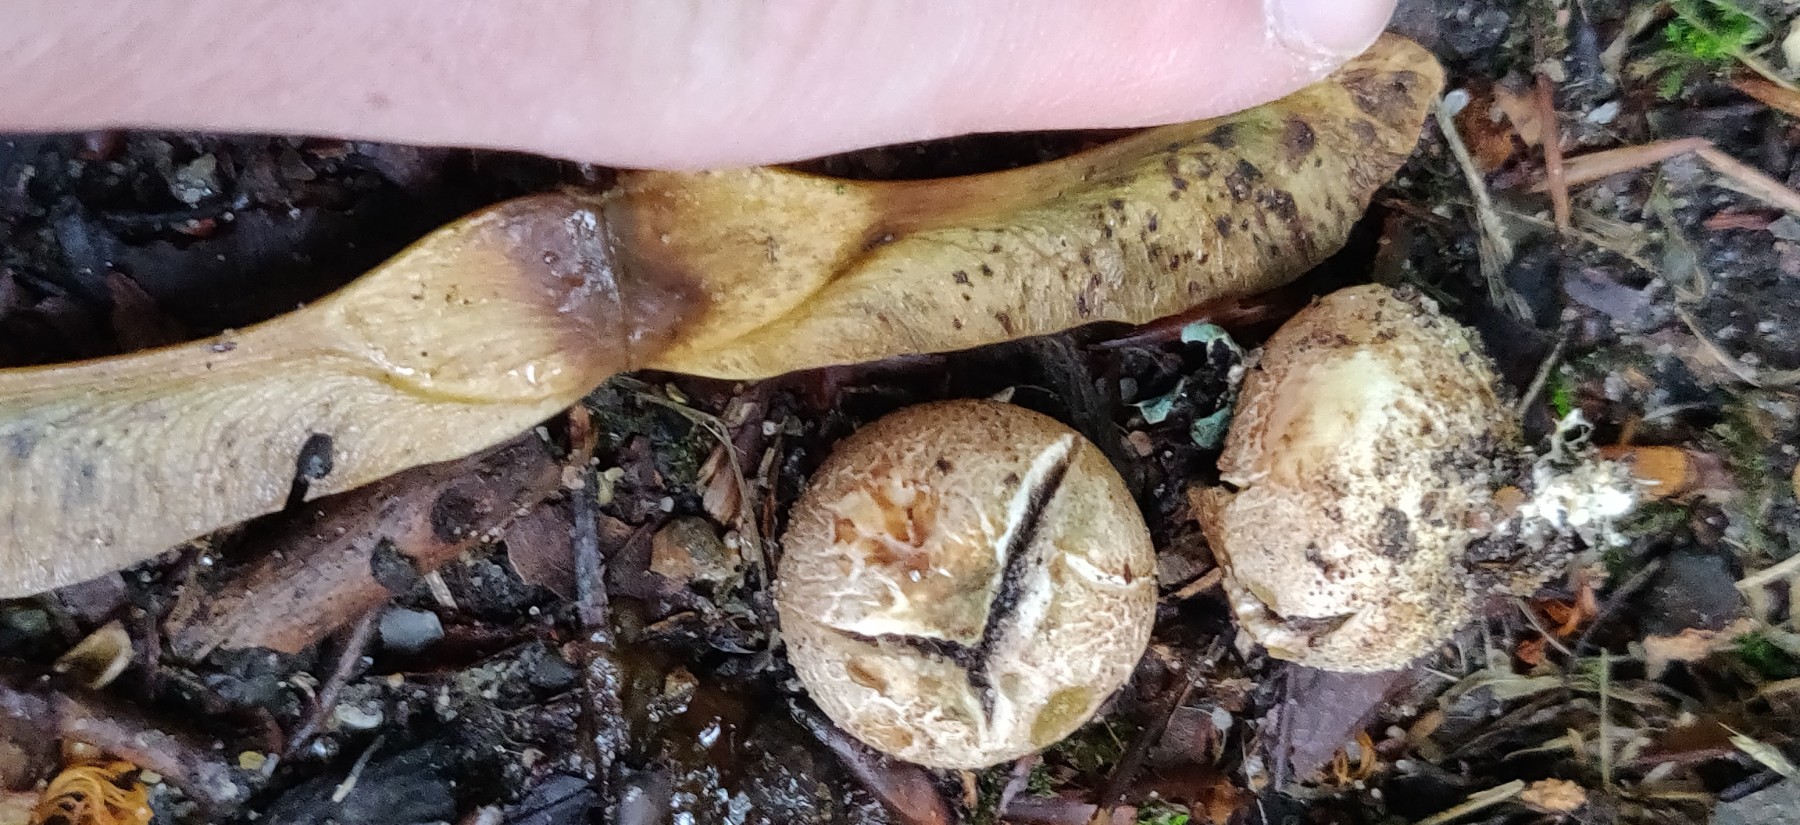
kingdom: Fungi
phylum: Basidiomycota
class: Agaricomycetes
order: Boletales
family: Sclerodermataceae
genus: Scleroderma
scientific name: Scleroderma
